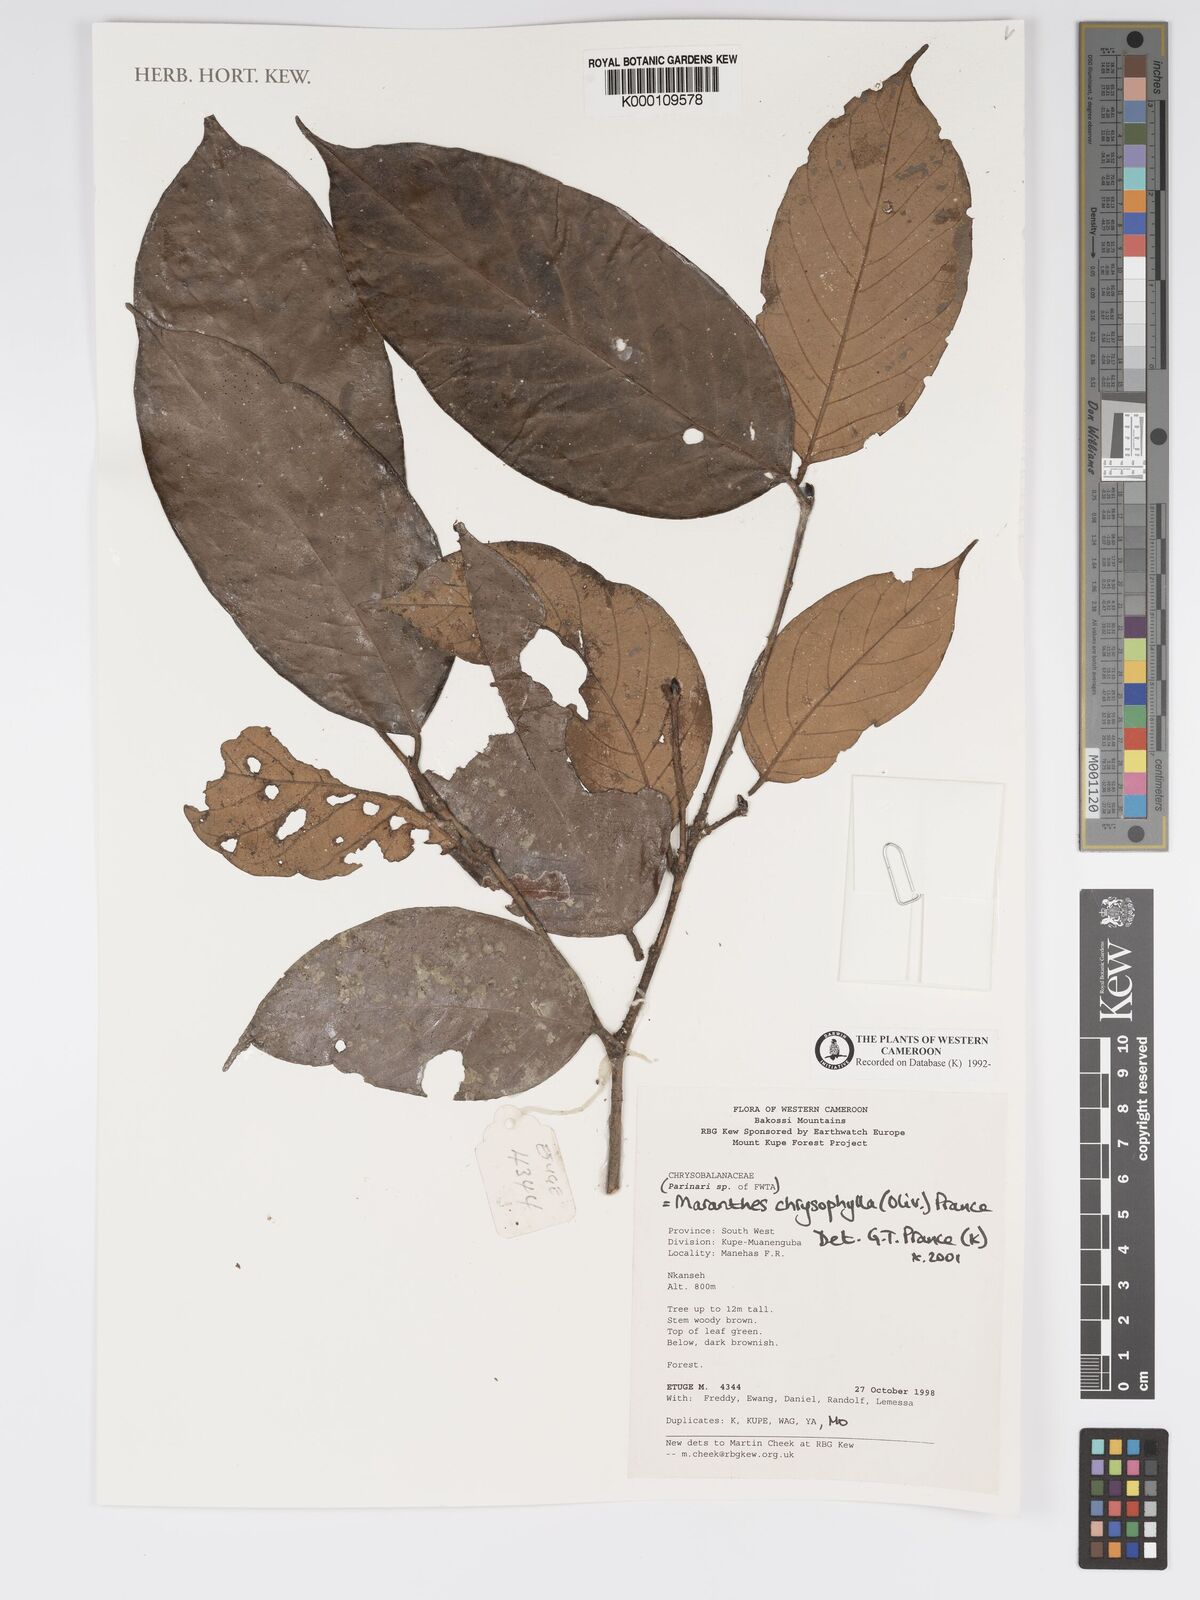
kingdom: Plantae
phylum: Tracheophyta
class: Magnoliopsida
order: Malpighiales
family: Chrysobalanaceae
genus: Maranthes
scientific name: Maranthes
